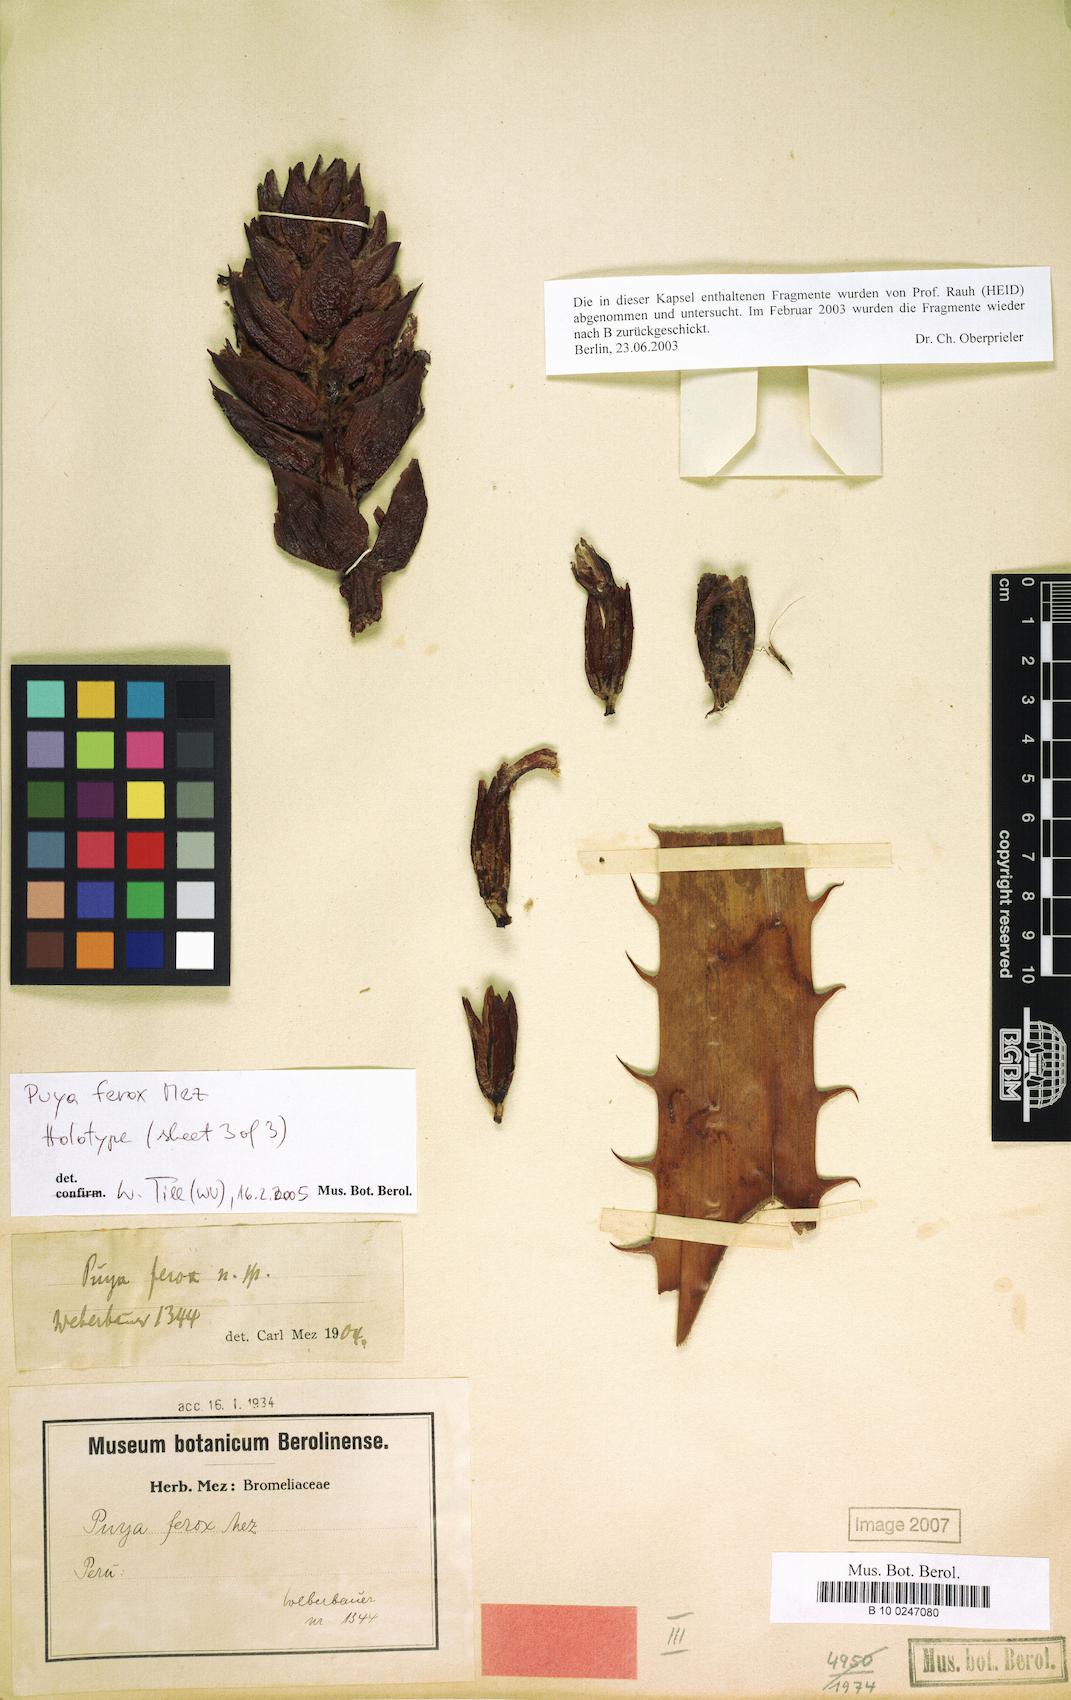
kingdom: Plantae
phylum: Tracheophyta
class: Liliopsida
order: Poales
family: Bromeliaceae
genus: Puya
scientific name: Puya ferox
